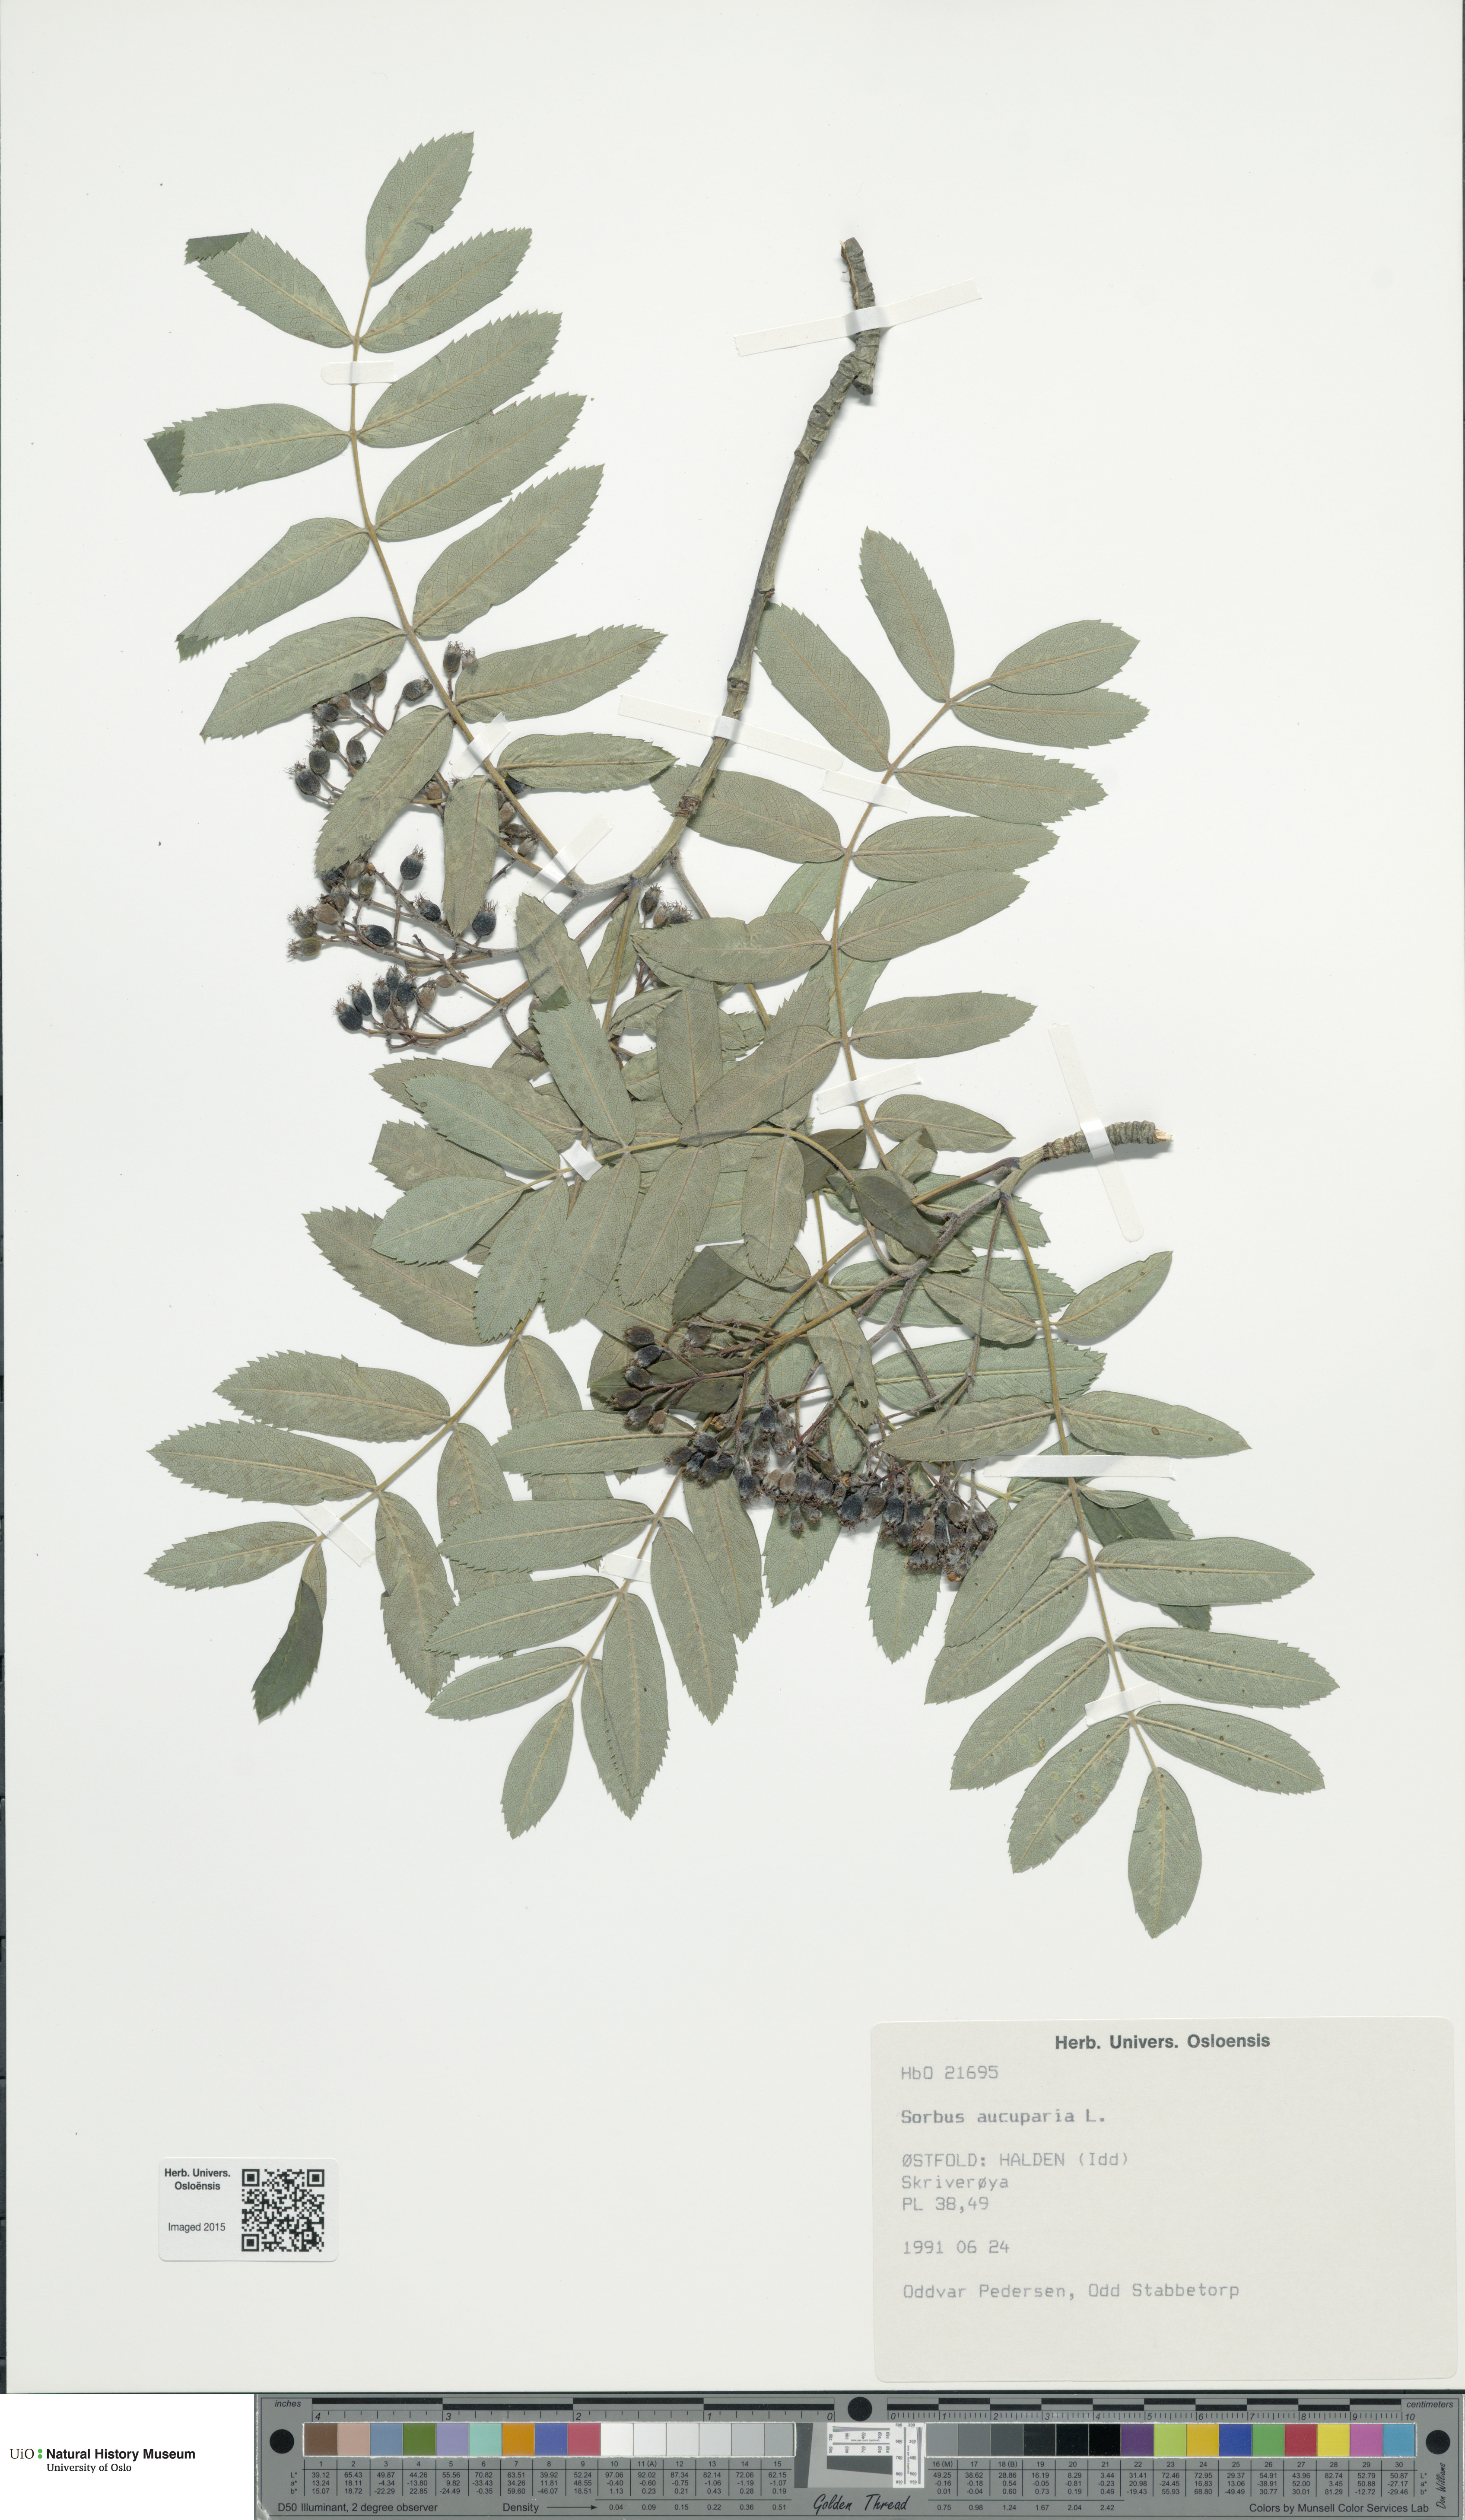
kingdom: Plantae
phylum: Tracheophyta
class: Magnoliopsida
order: Rosales
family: Rosaceae
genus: Sorbus
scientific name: Sorbus aucuparia
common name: Rowan
